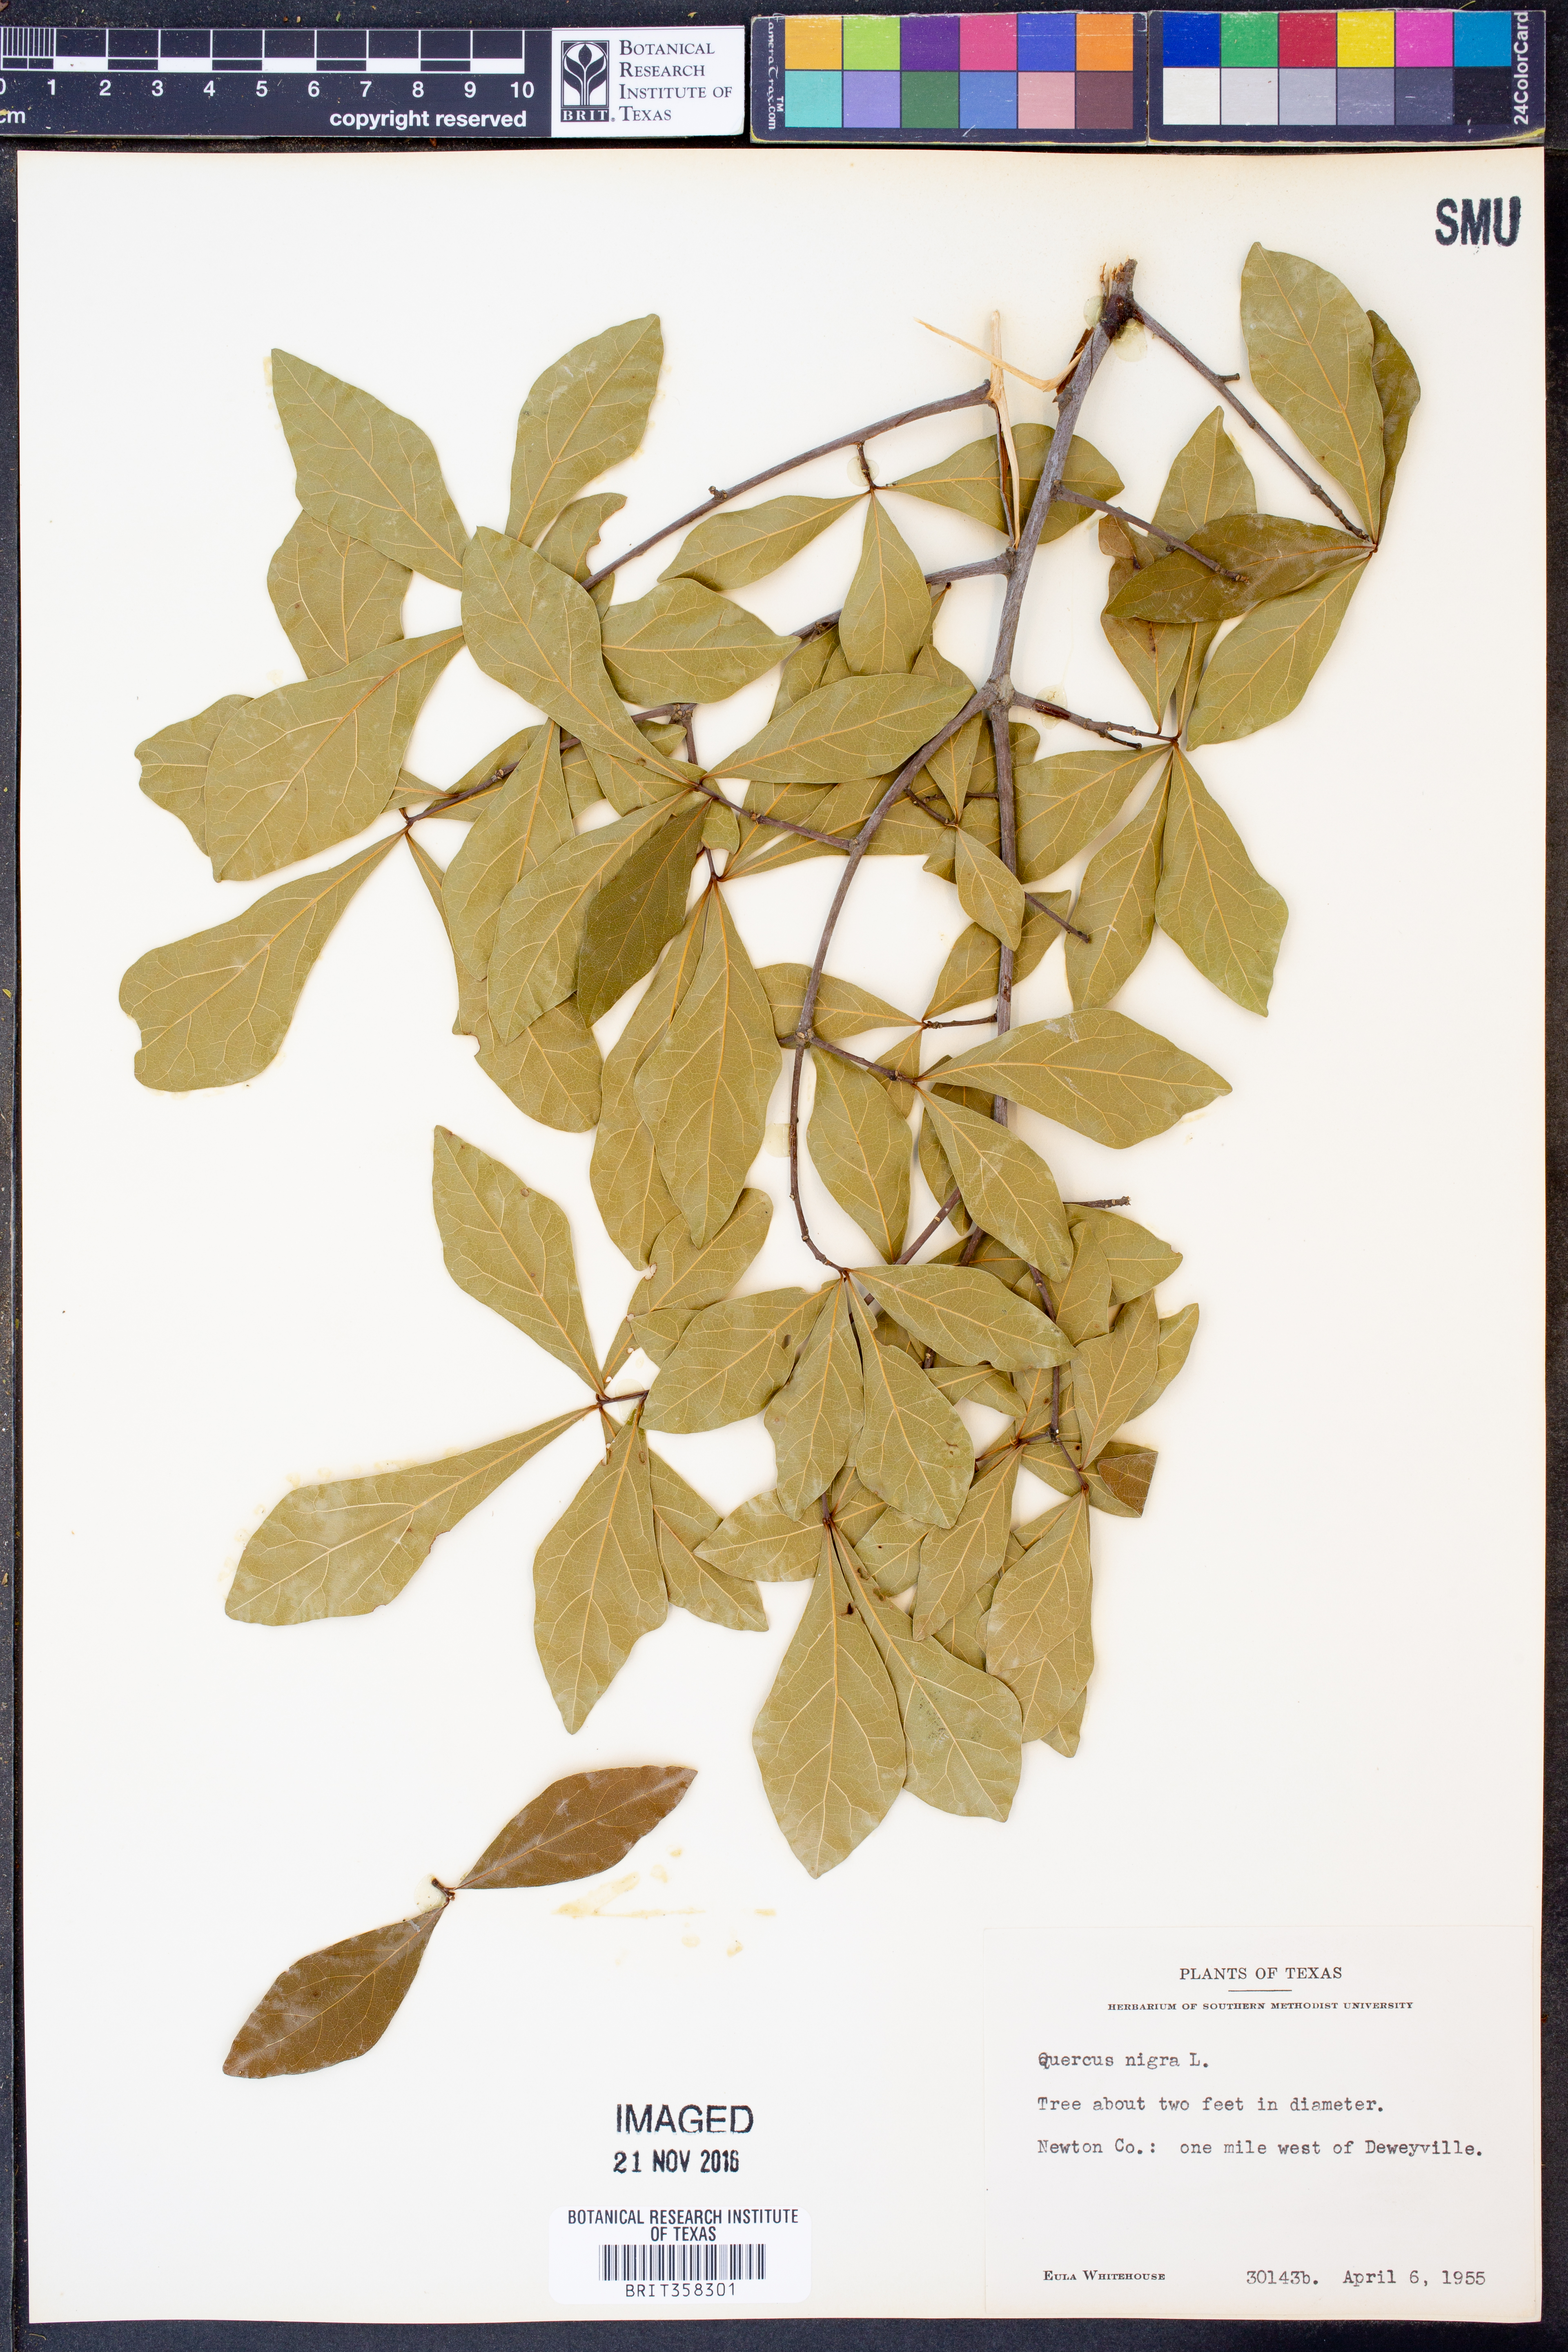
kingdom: Plantae
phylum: Tracheophyta
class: Magnoliopsida
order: Fagales
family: Fagaceae
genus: Quercus
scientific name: Quercus nigra
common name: Water oak
